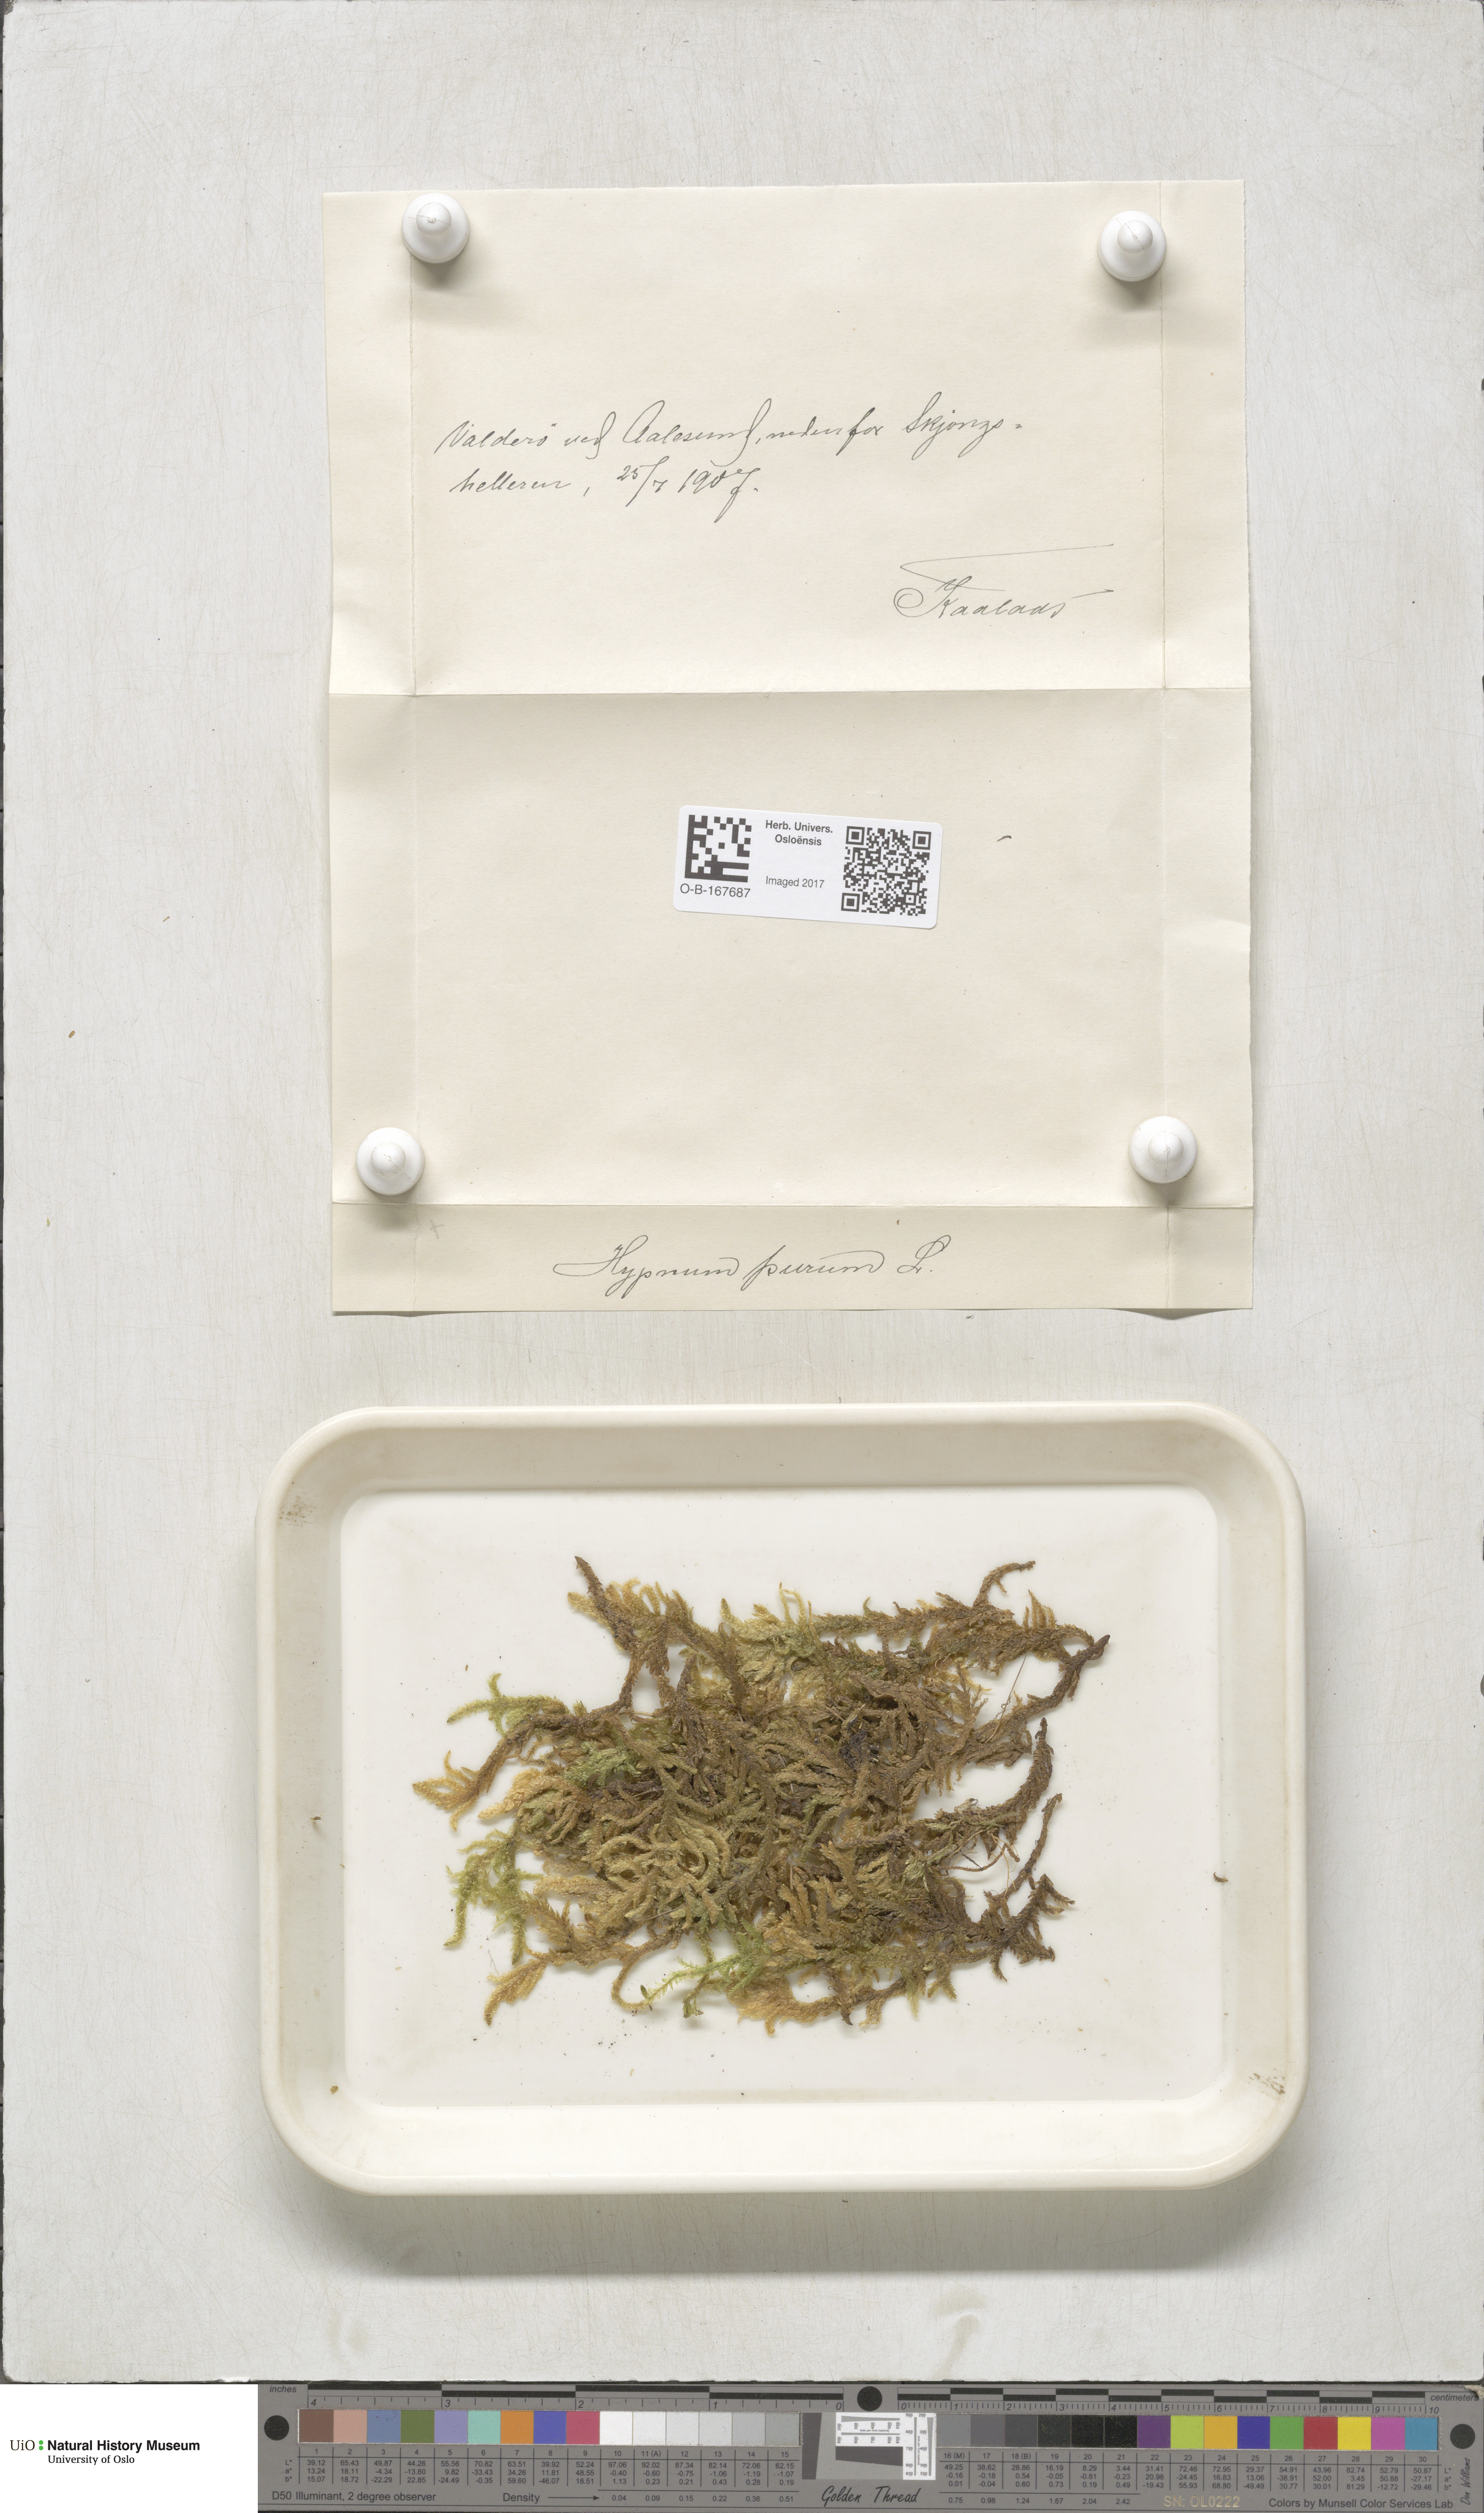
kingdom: Plantae
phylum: Bryophyta
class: Bryopsida
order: Hypnales
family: Brachytheciaceae
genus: Pseudoscleropodium
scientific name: Pseudoscleropodium purum
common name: Neat feather-moss
